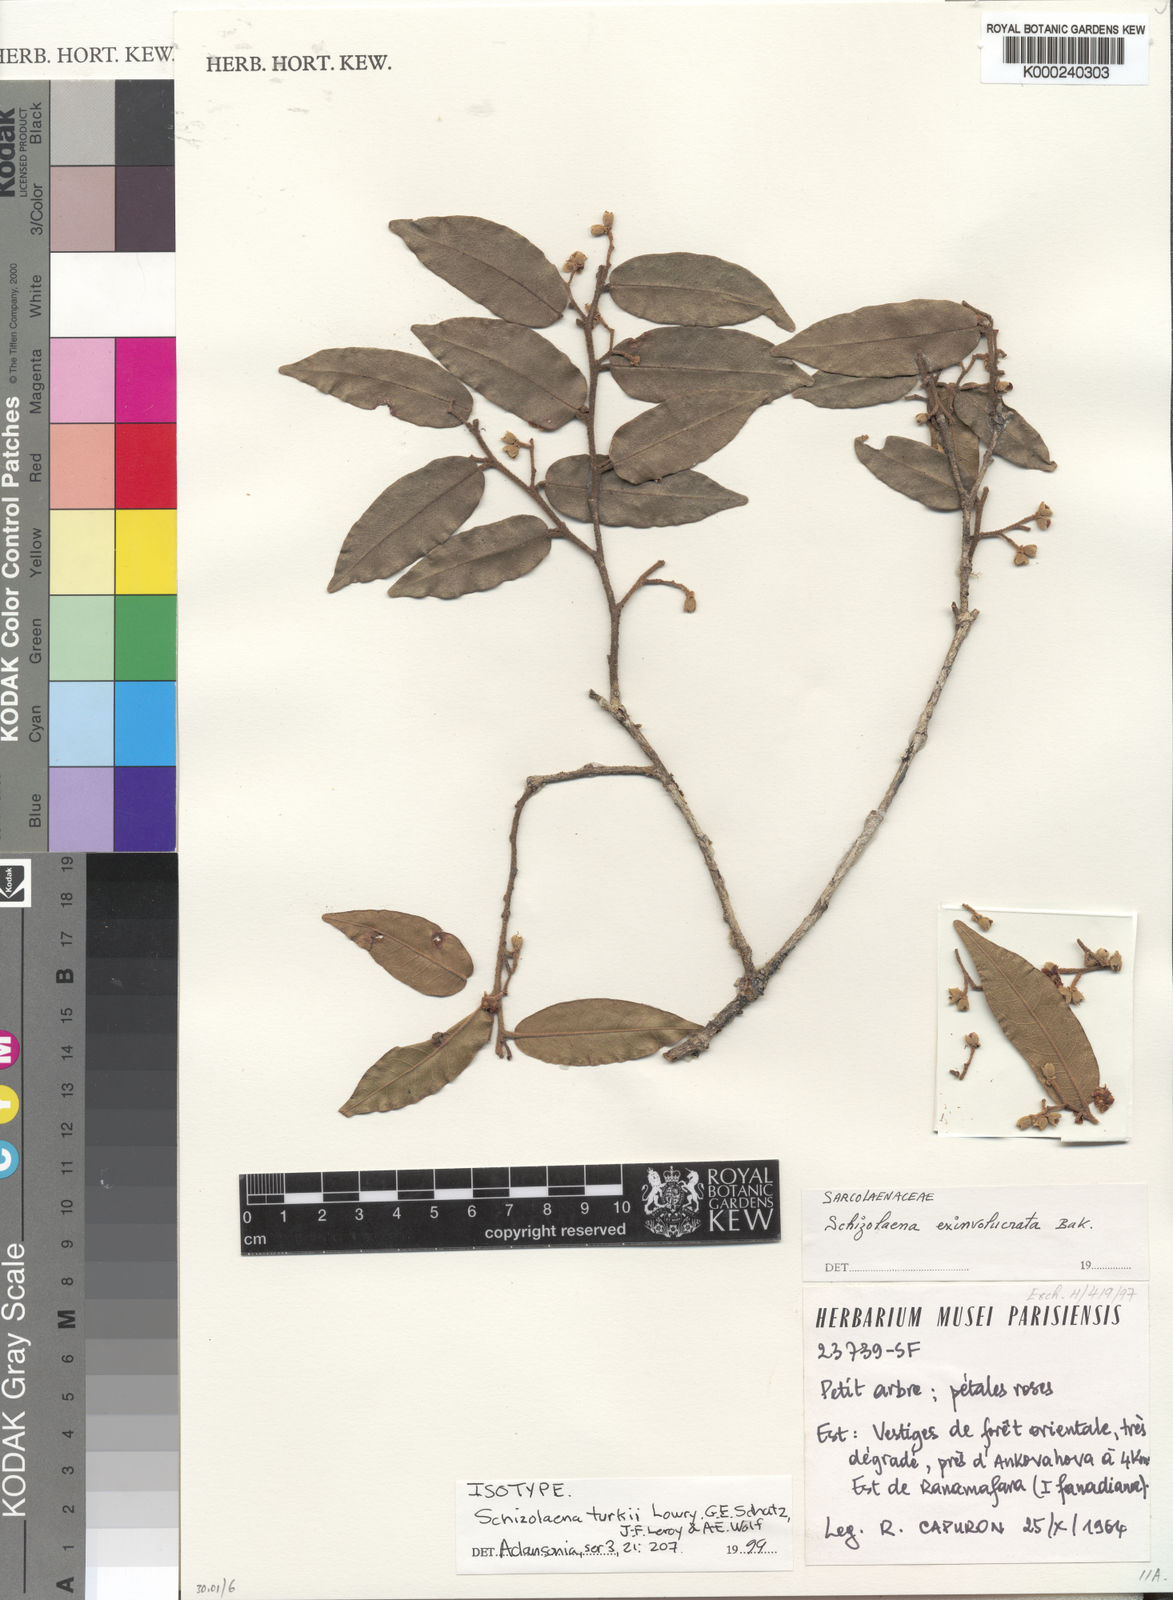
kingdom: Plantae
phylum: Tracheophyta
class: Magnoliopsida
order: Malvales
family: Sarcolaenaceae
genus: Schizolaena
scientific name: Schizolaena turkii
